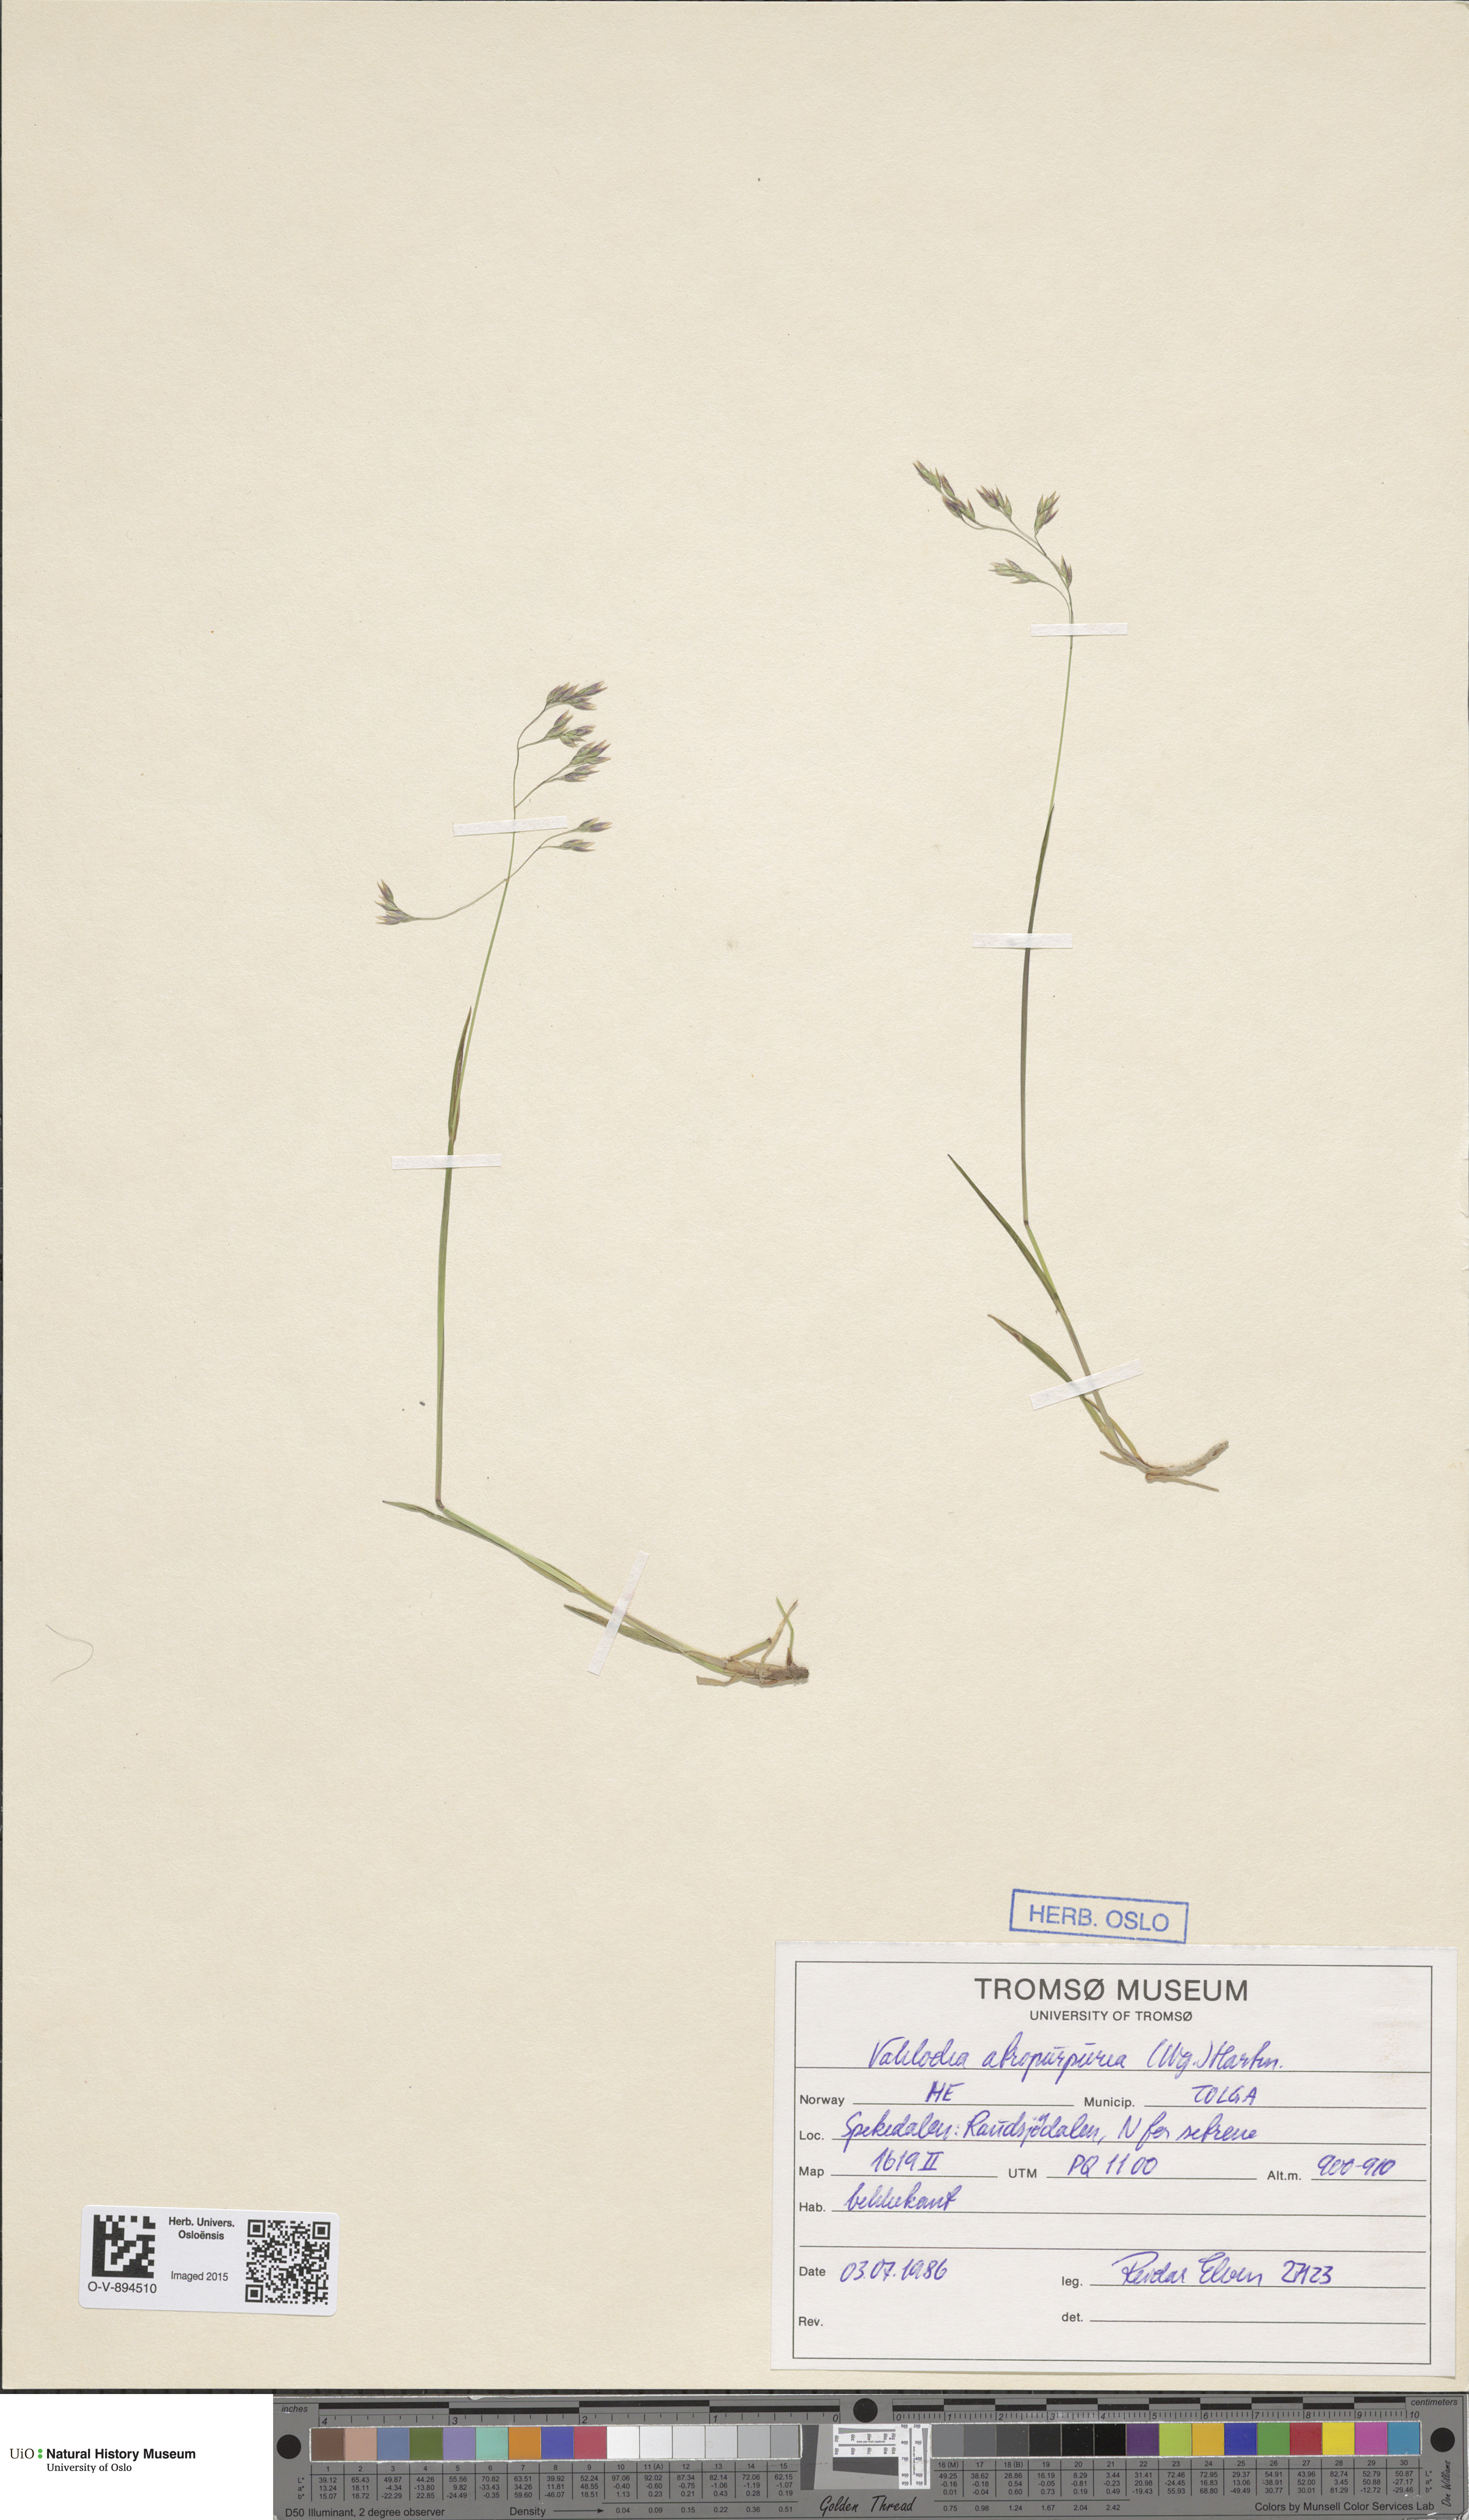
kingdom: Plantae
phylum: Tracheophyta
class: Liliopsida
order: Poales
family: Poaceae
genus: Vahlodea
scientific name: Vahlodea atropurpurea
